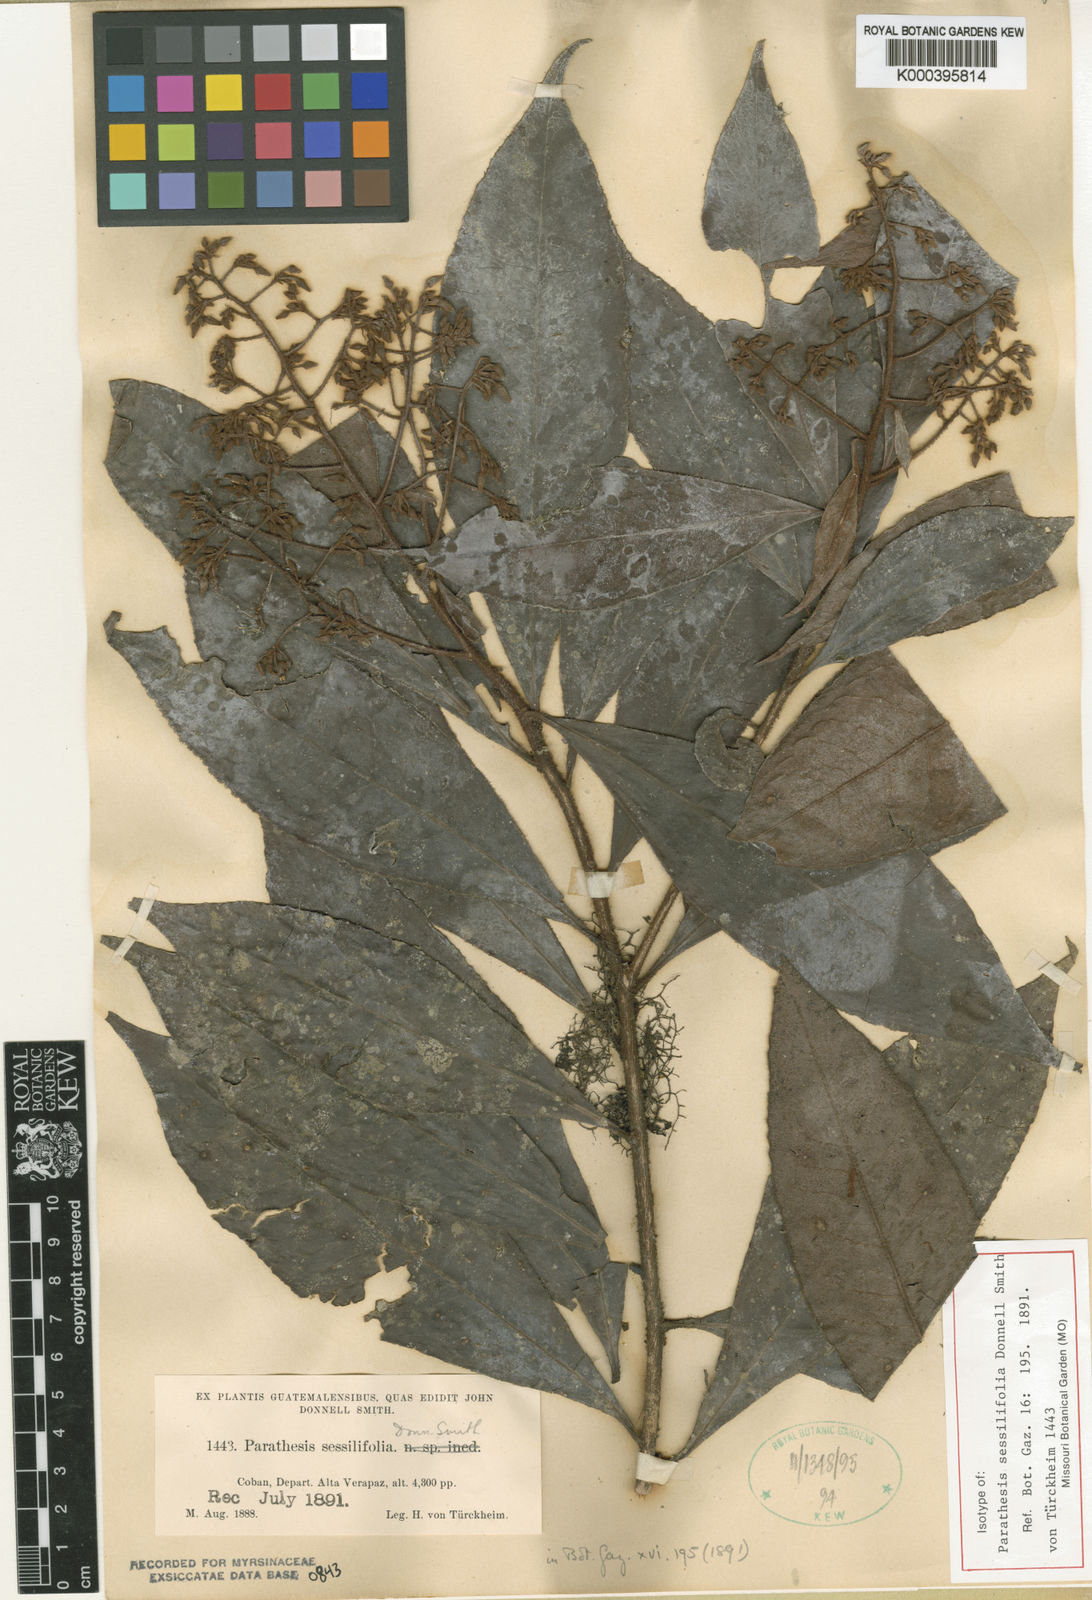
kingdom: Plantae
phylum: Tracheophyta
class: Magnoliopsida
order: Ericales
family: Primulaceae
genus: Parathesis
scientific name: Parathesis sessilifolia
